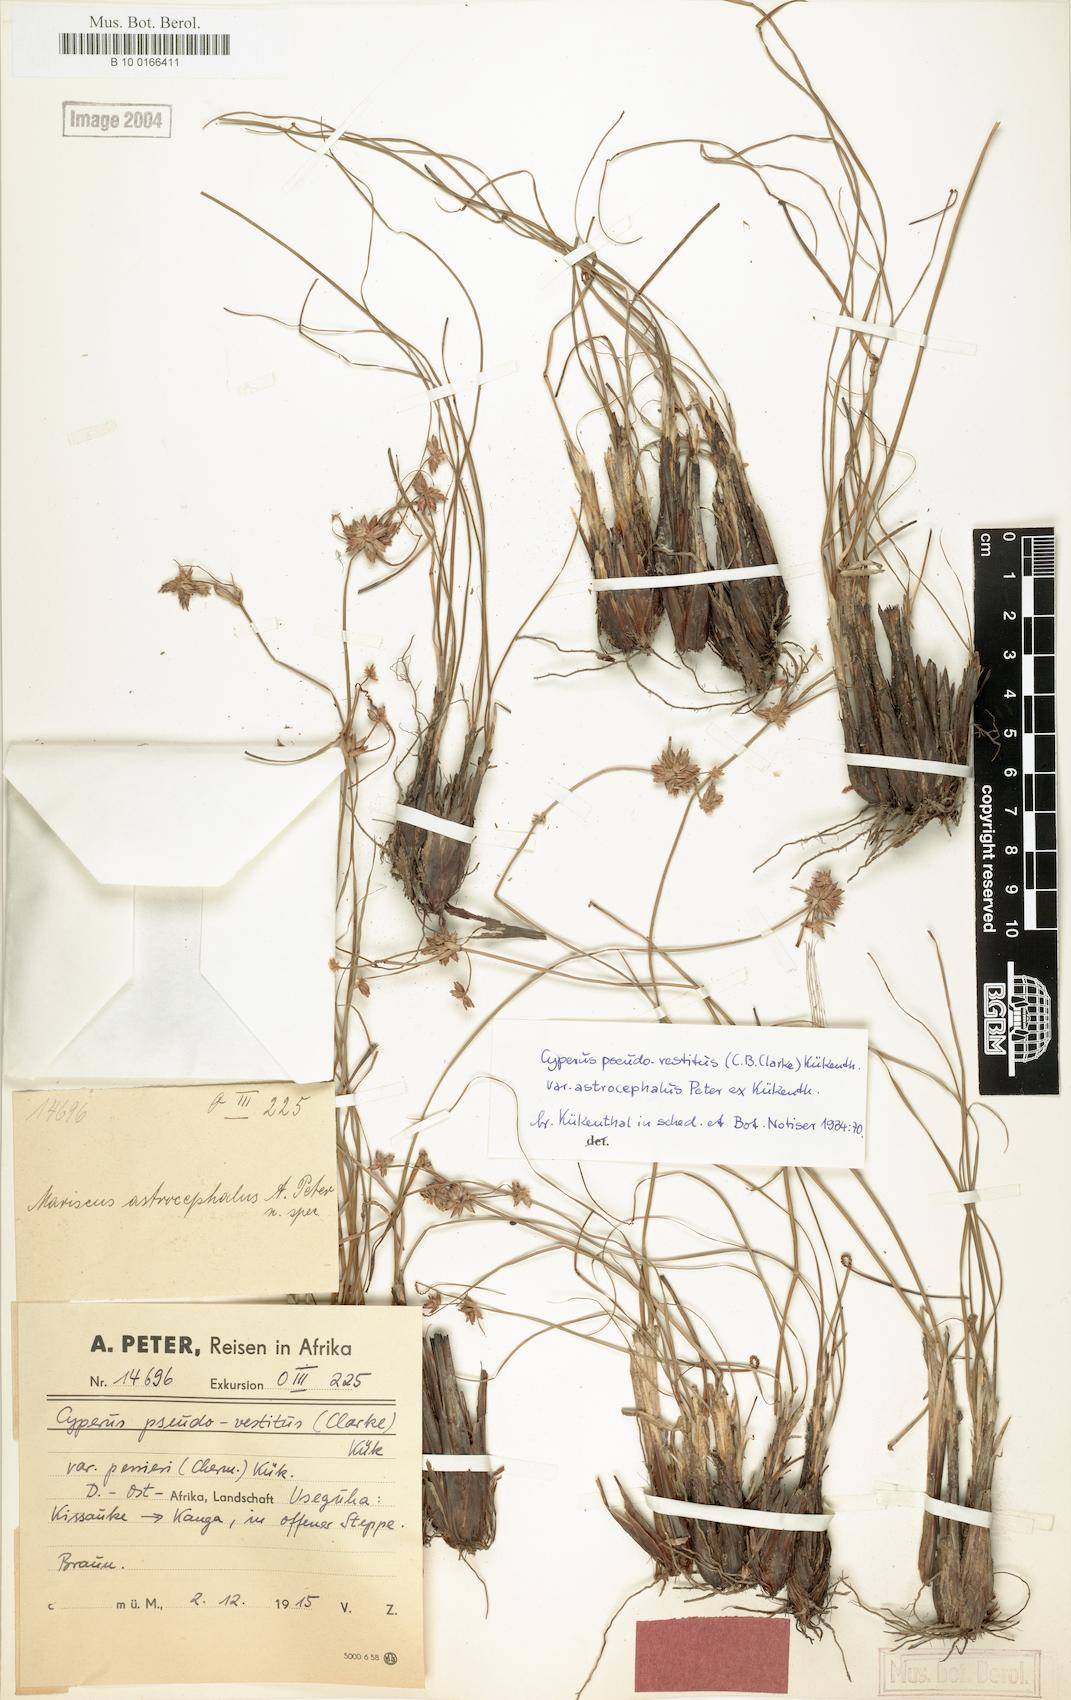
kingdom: Plantae
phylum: Tracheophyta
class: Liliopsida
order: Poales
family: Cyperaceae
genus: Cyperus
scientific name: Cyperus perrieri
